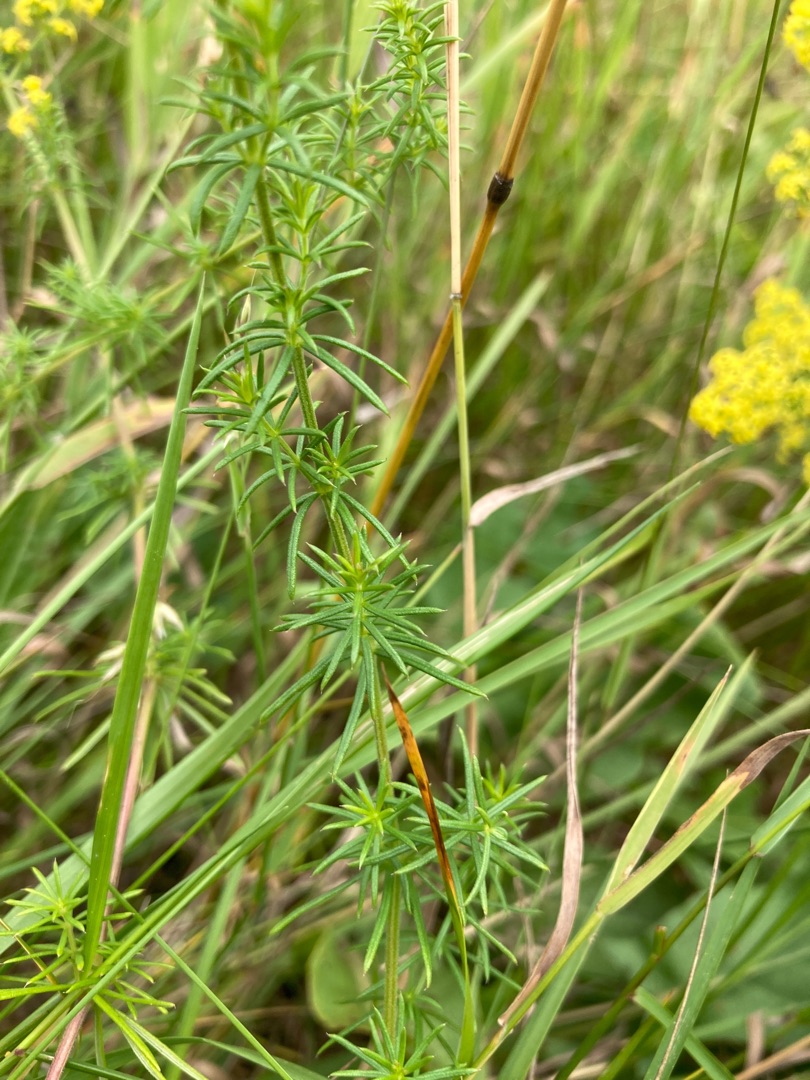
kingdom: Plantae
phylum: Tracheophyta
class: Magnoliopsida
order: Gentianales
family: Rubiaceae
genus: Galium
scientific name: Galium verum
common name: Gul snerre
